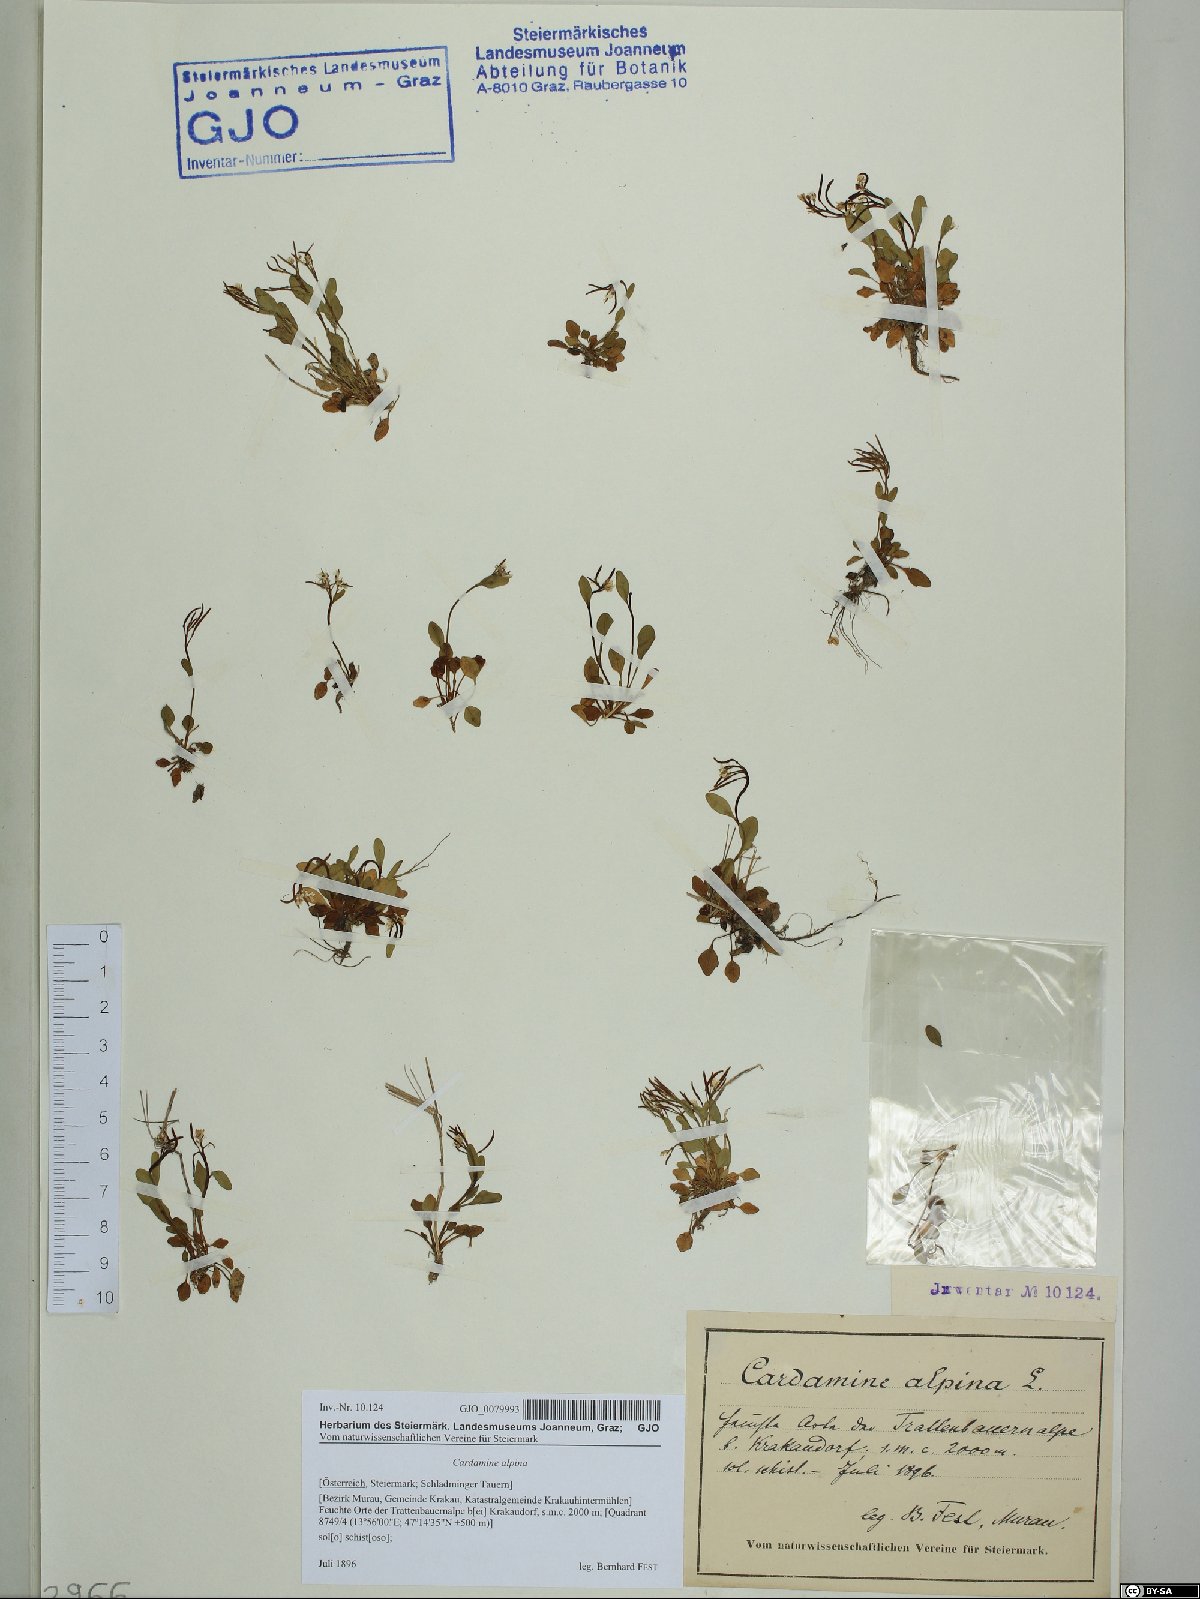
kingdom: Plantae
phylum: Tracheophyta
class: Magnoliopsida
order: Brassicales
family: Brassicaceae
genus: Cardamine
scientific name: Cardamine bellidifolia
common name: Alpine bittercress
